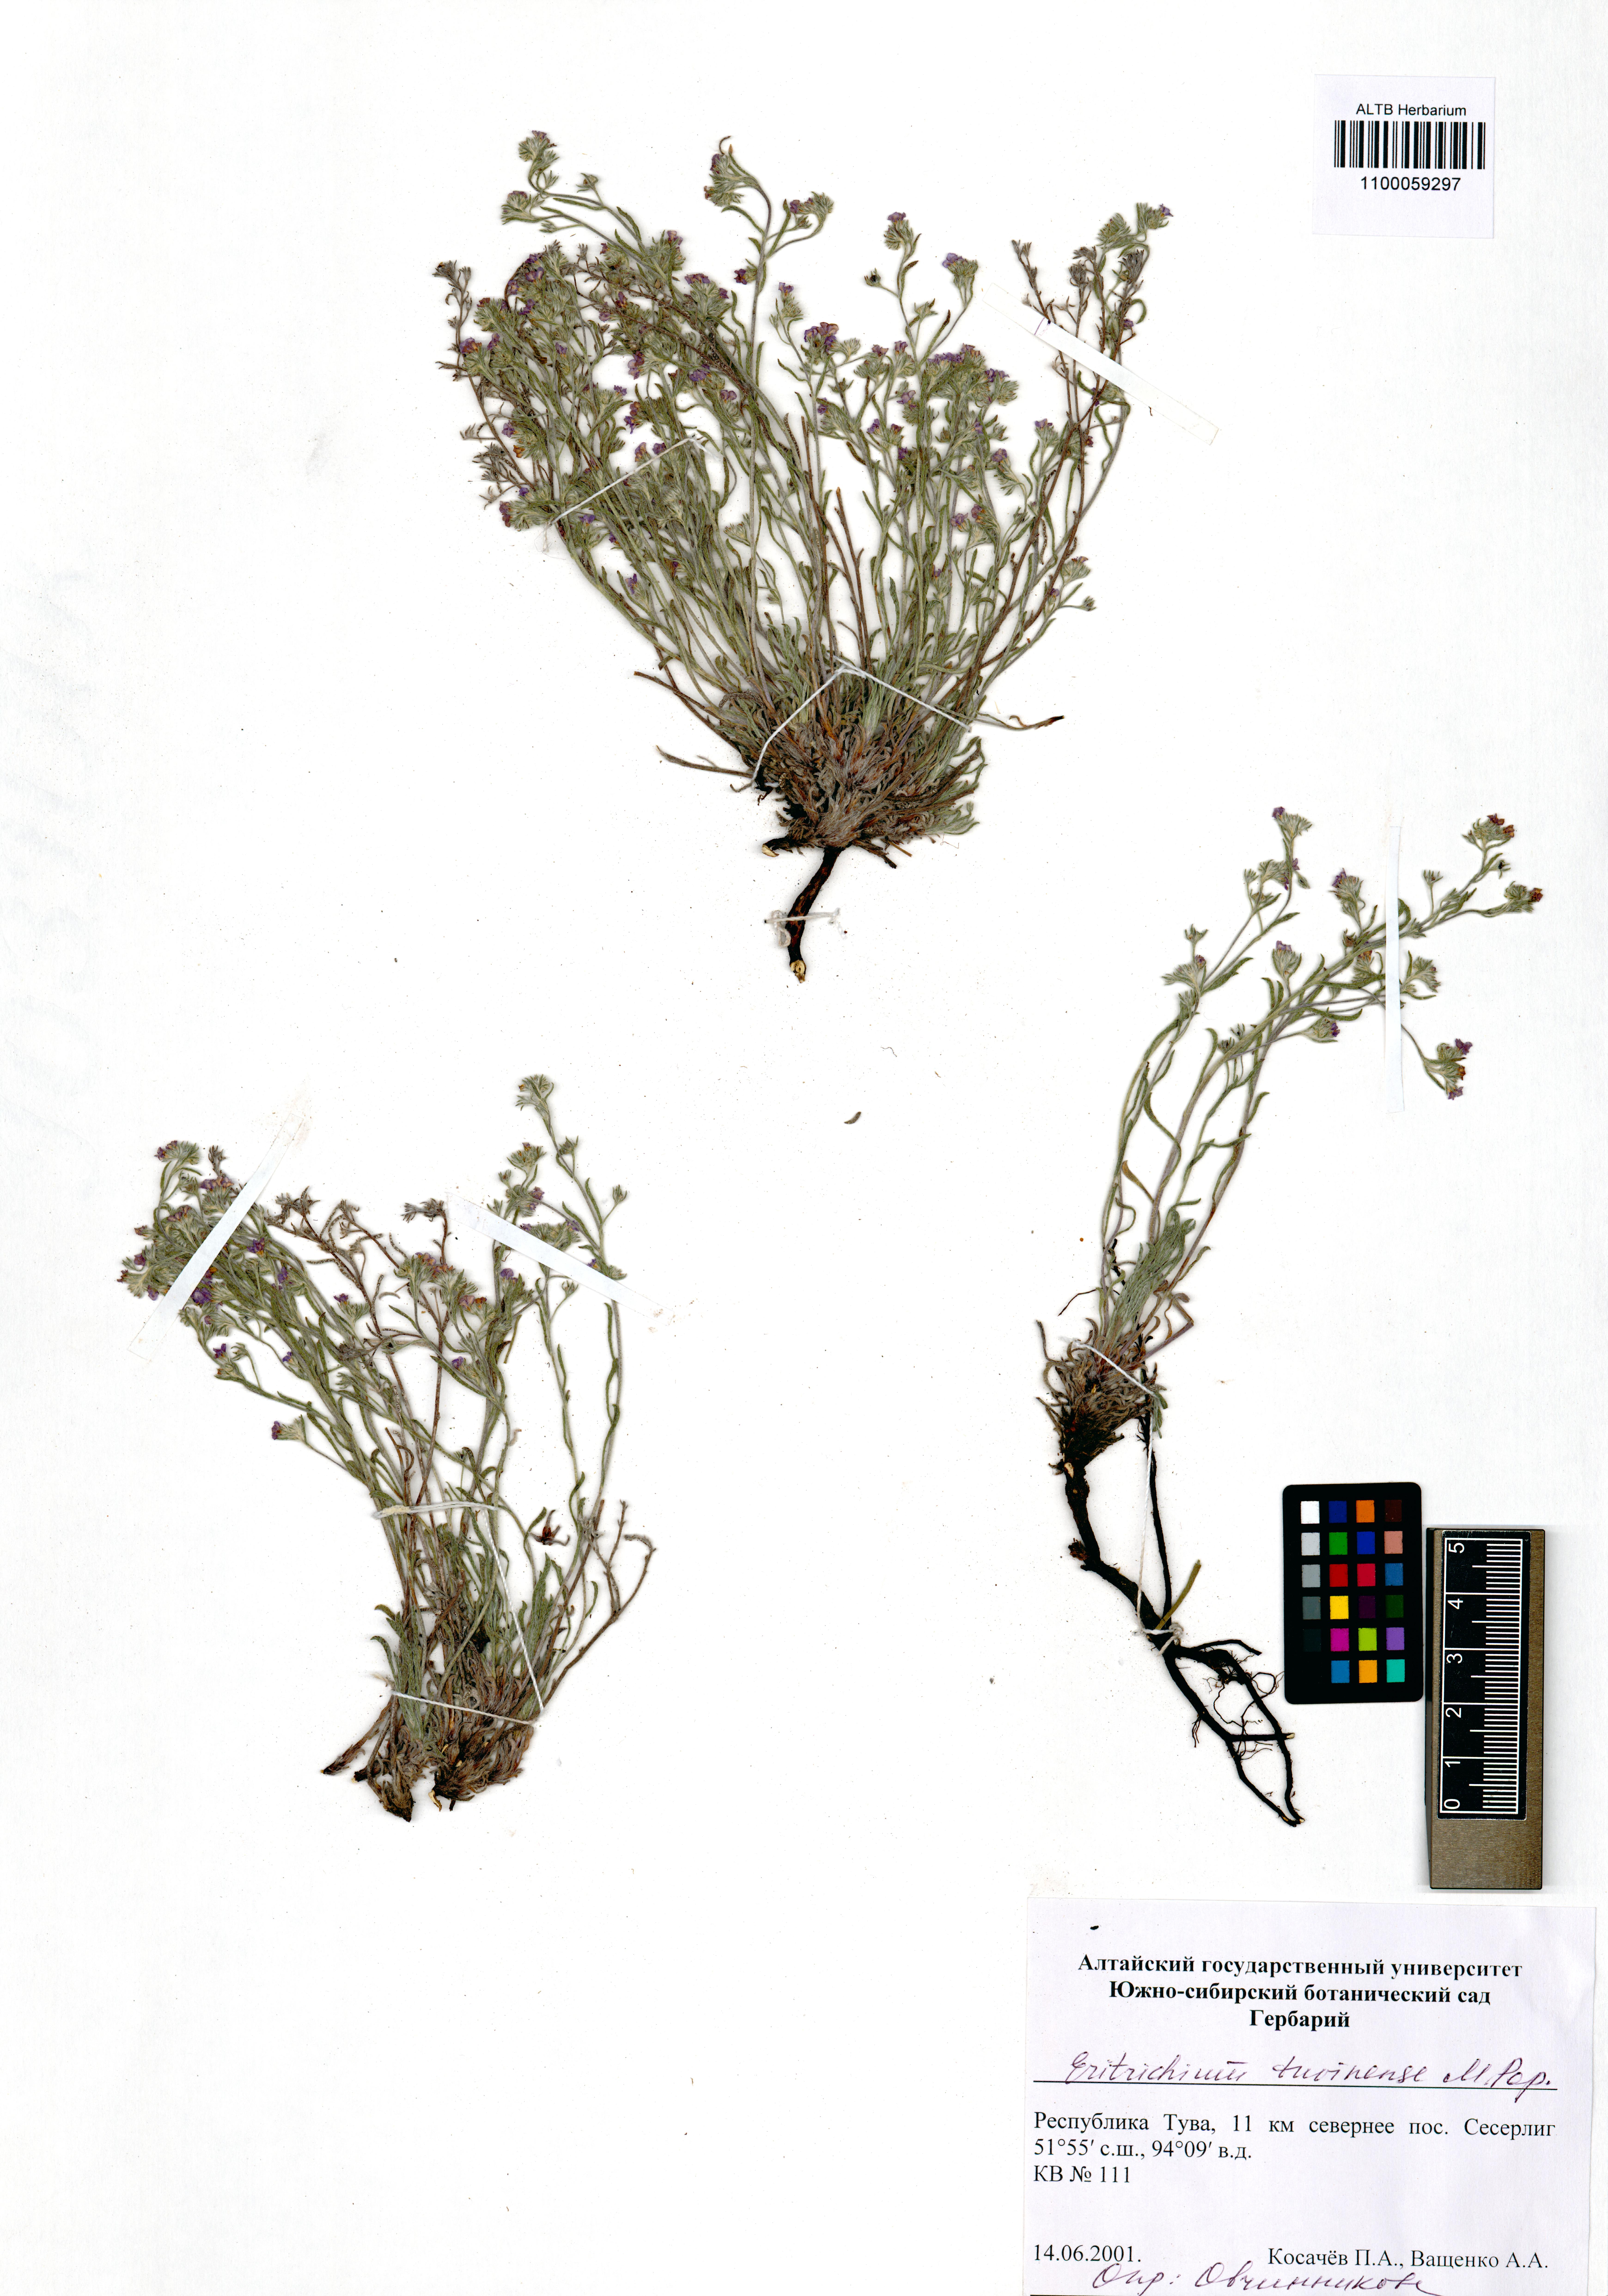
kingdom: Plantae
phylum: Tracheophyta
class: Magnoliopsida
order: Boraginales
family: Boraginaceae
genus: Eritrichium
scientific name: Eritrichium tuvinense
